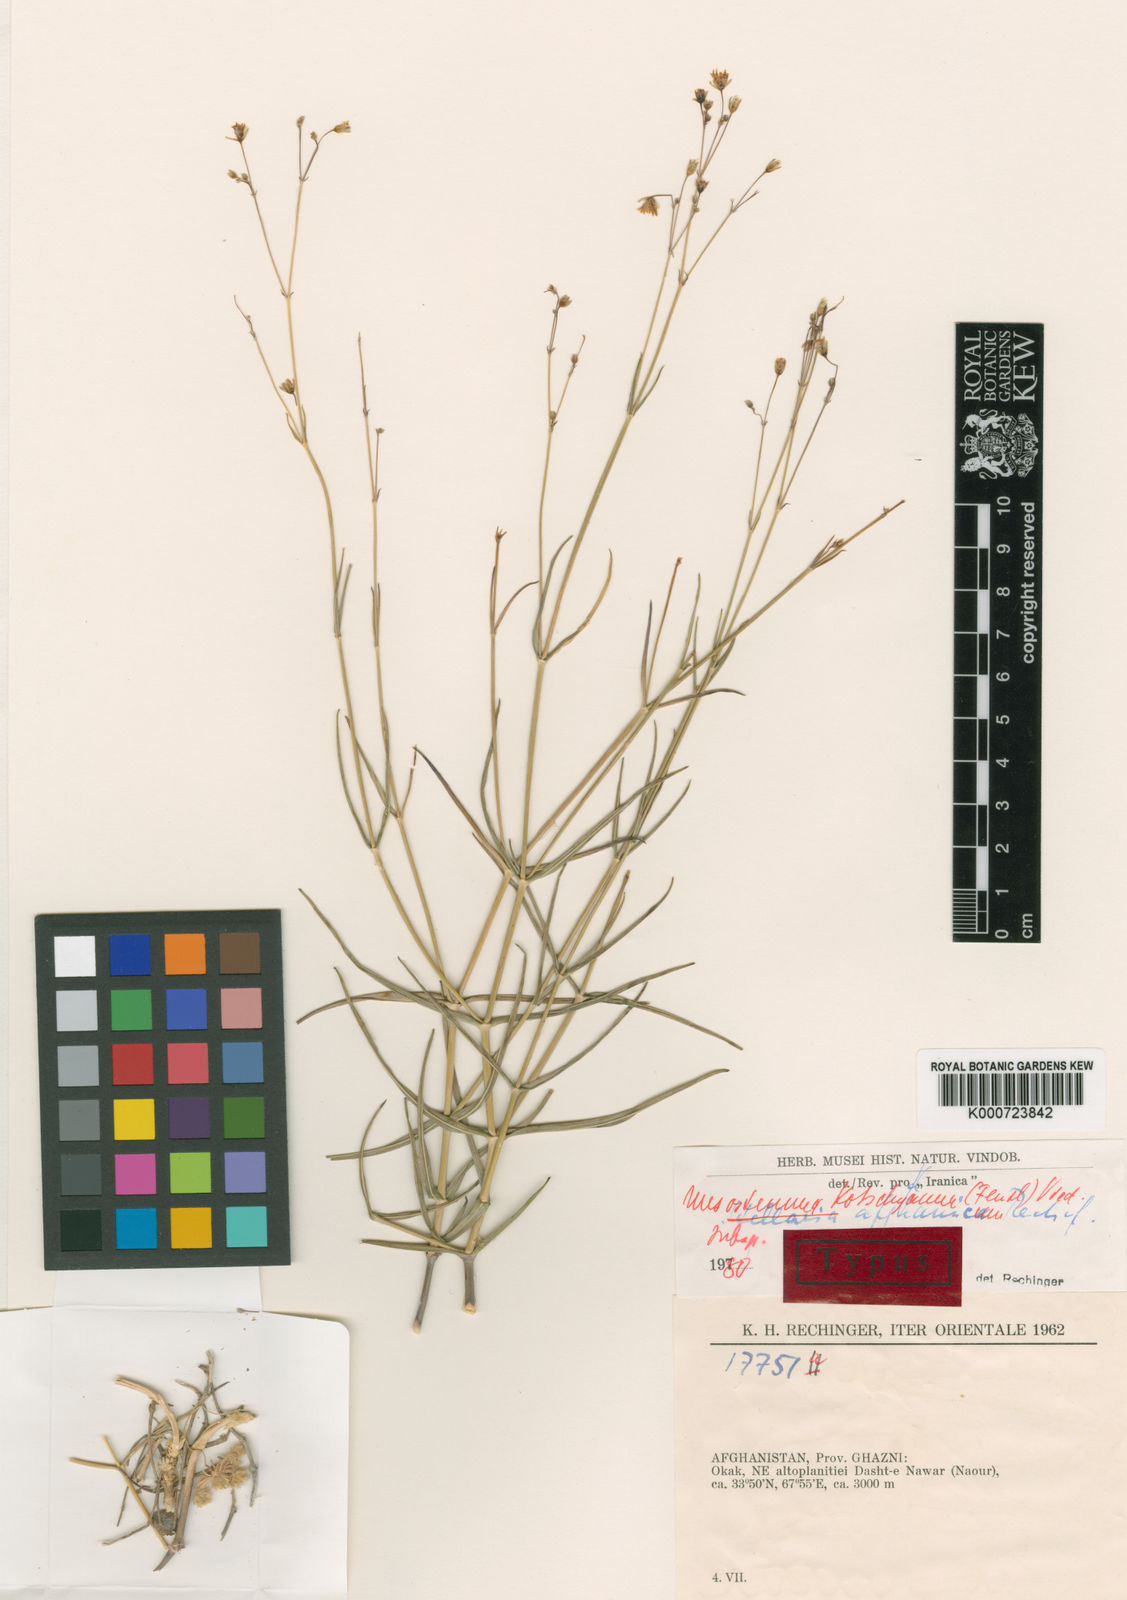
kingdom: Plantae
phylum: Tracheophyta
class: Magnoliopsida
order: Caryophyllales
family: Caryophyllaceae
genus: Mesostemma
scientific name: Mesostemma kotschyanum
